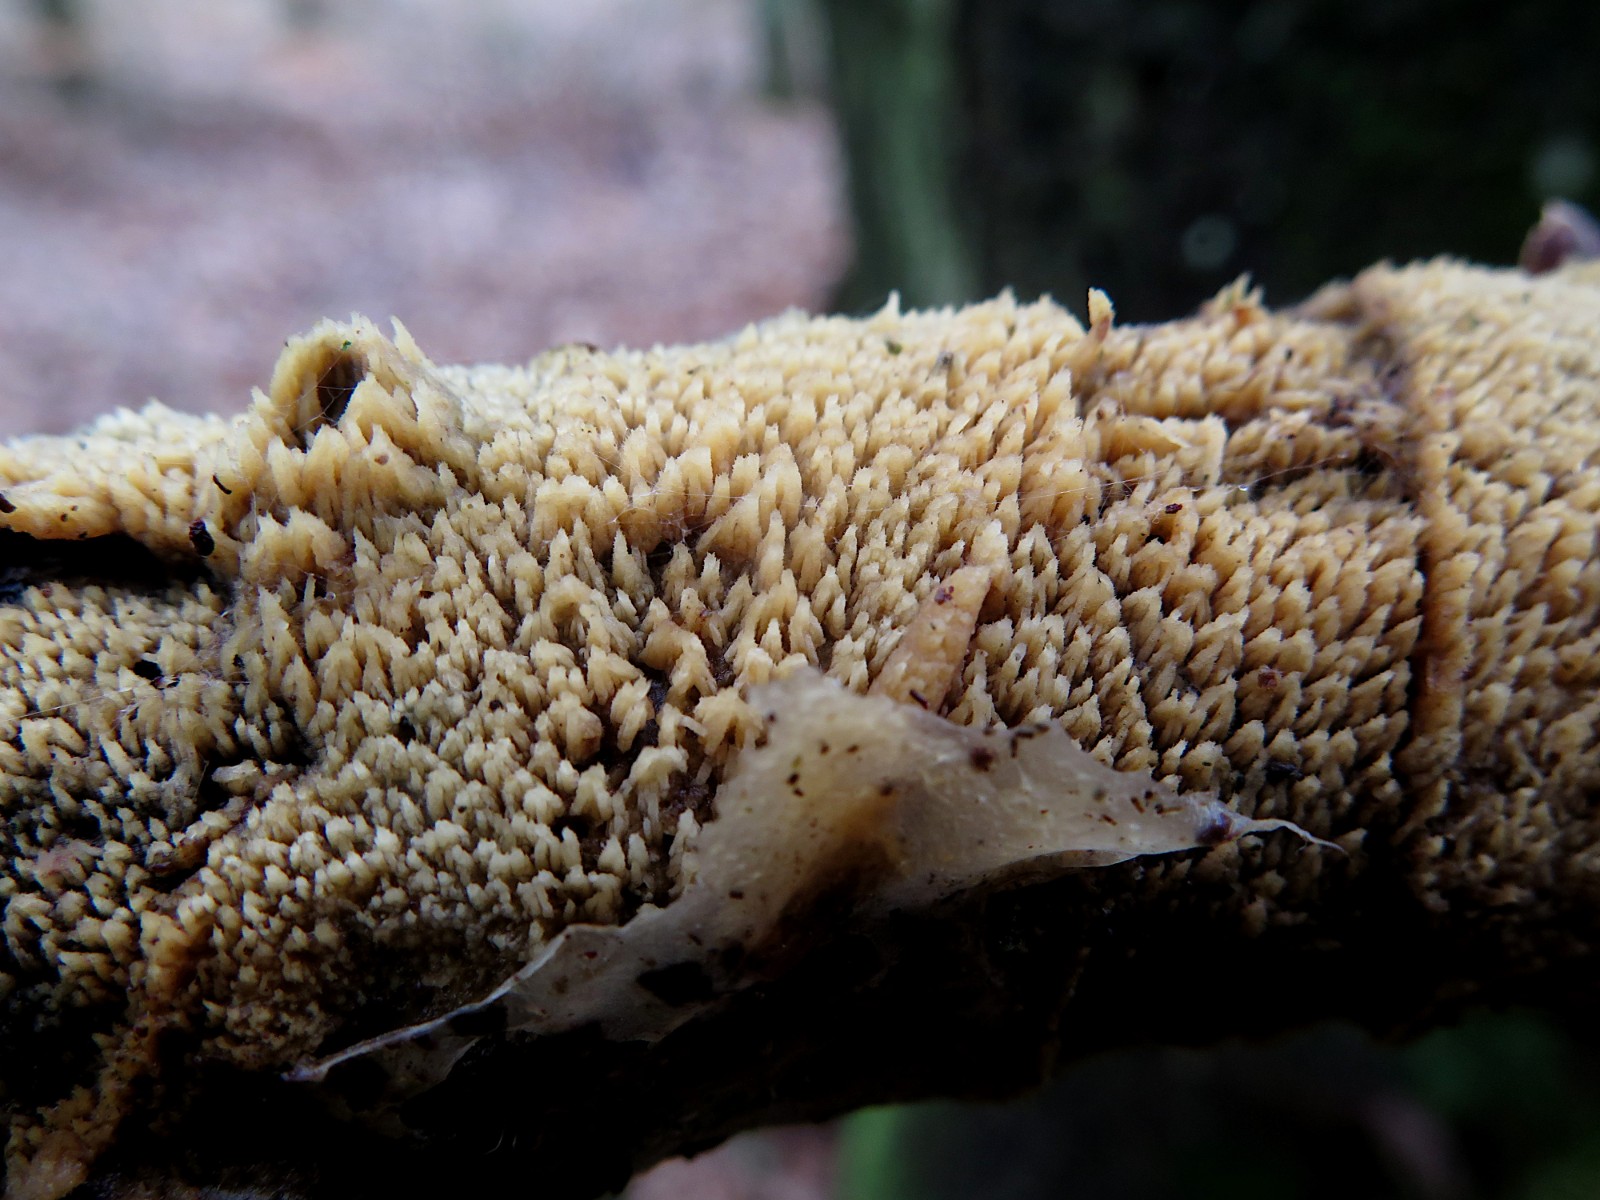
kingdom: Fungi
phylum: Basidiomycota
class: Agaricomycetes
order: Hymenochaetales
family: Hyphodontiaceae
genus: Hyphodontia
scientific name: Hyphodontia barba-jovis
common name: skægget tandsvamp
